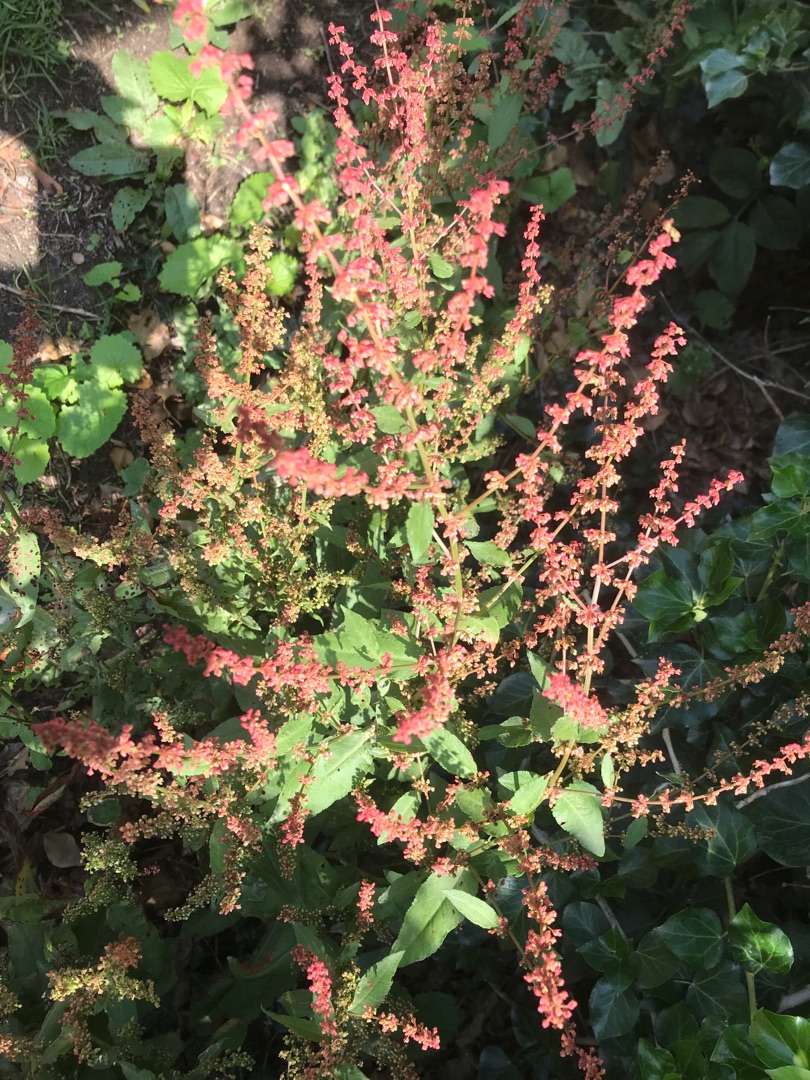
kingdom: Plantae
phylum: Tracheophyta
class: Magnoliopsida
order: Caryophyllales
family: Polygonaceae
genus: Rumex
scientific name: Rumex sanguineus
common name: Skov-skræppe
